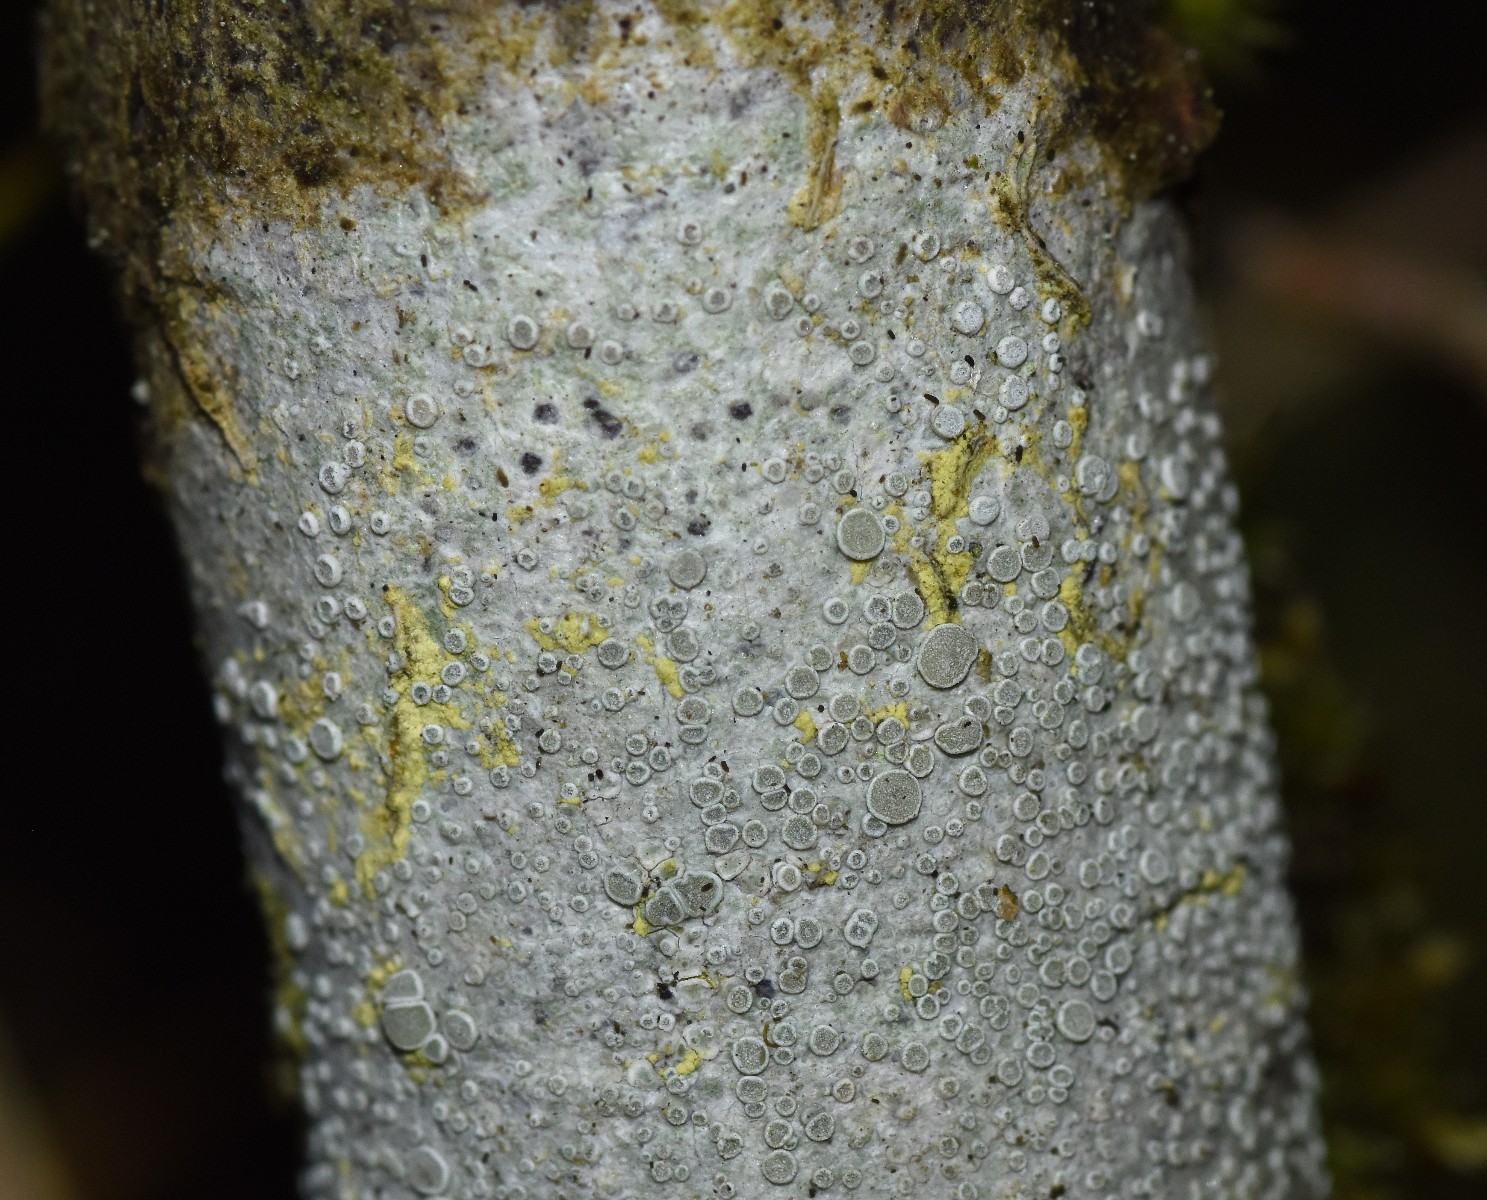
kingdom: Fungi
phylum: Ascomycota
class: Lecanoromycetes
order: Lecanorales
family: Lecanoraceae
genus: Glaucomaria
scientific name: Glaucomaria carpinea
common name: hviddugget kantskivelav
